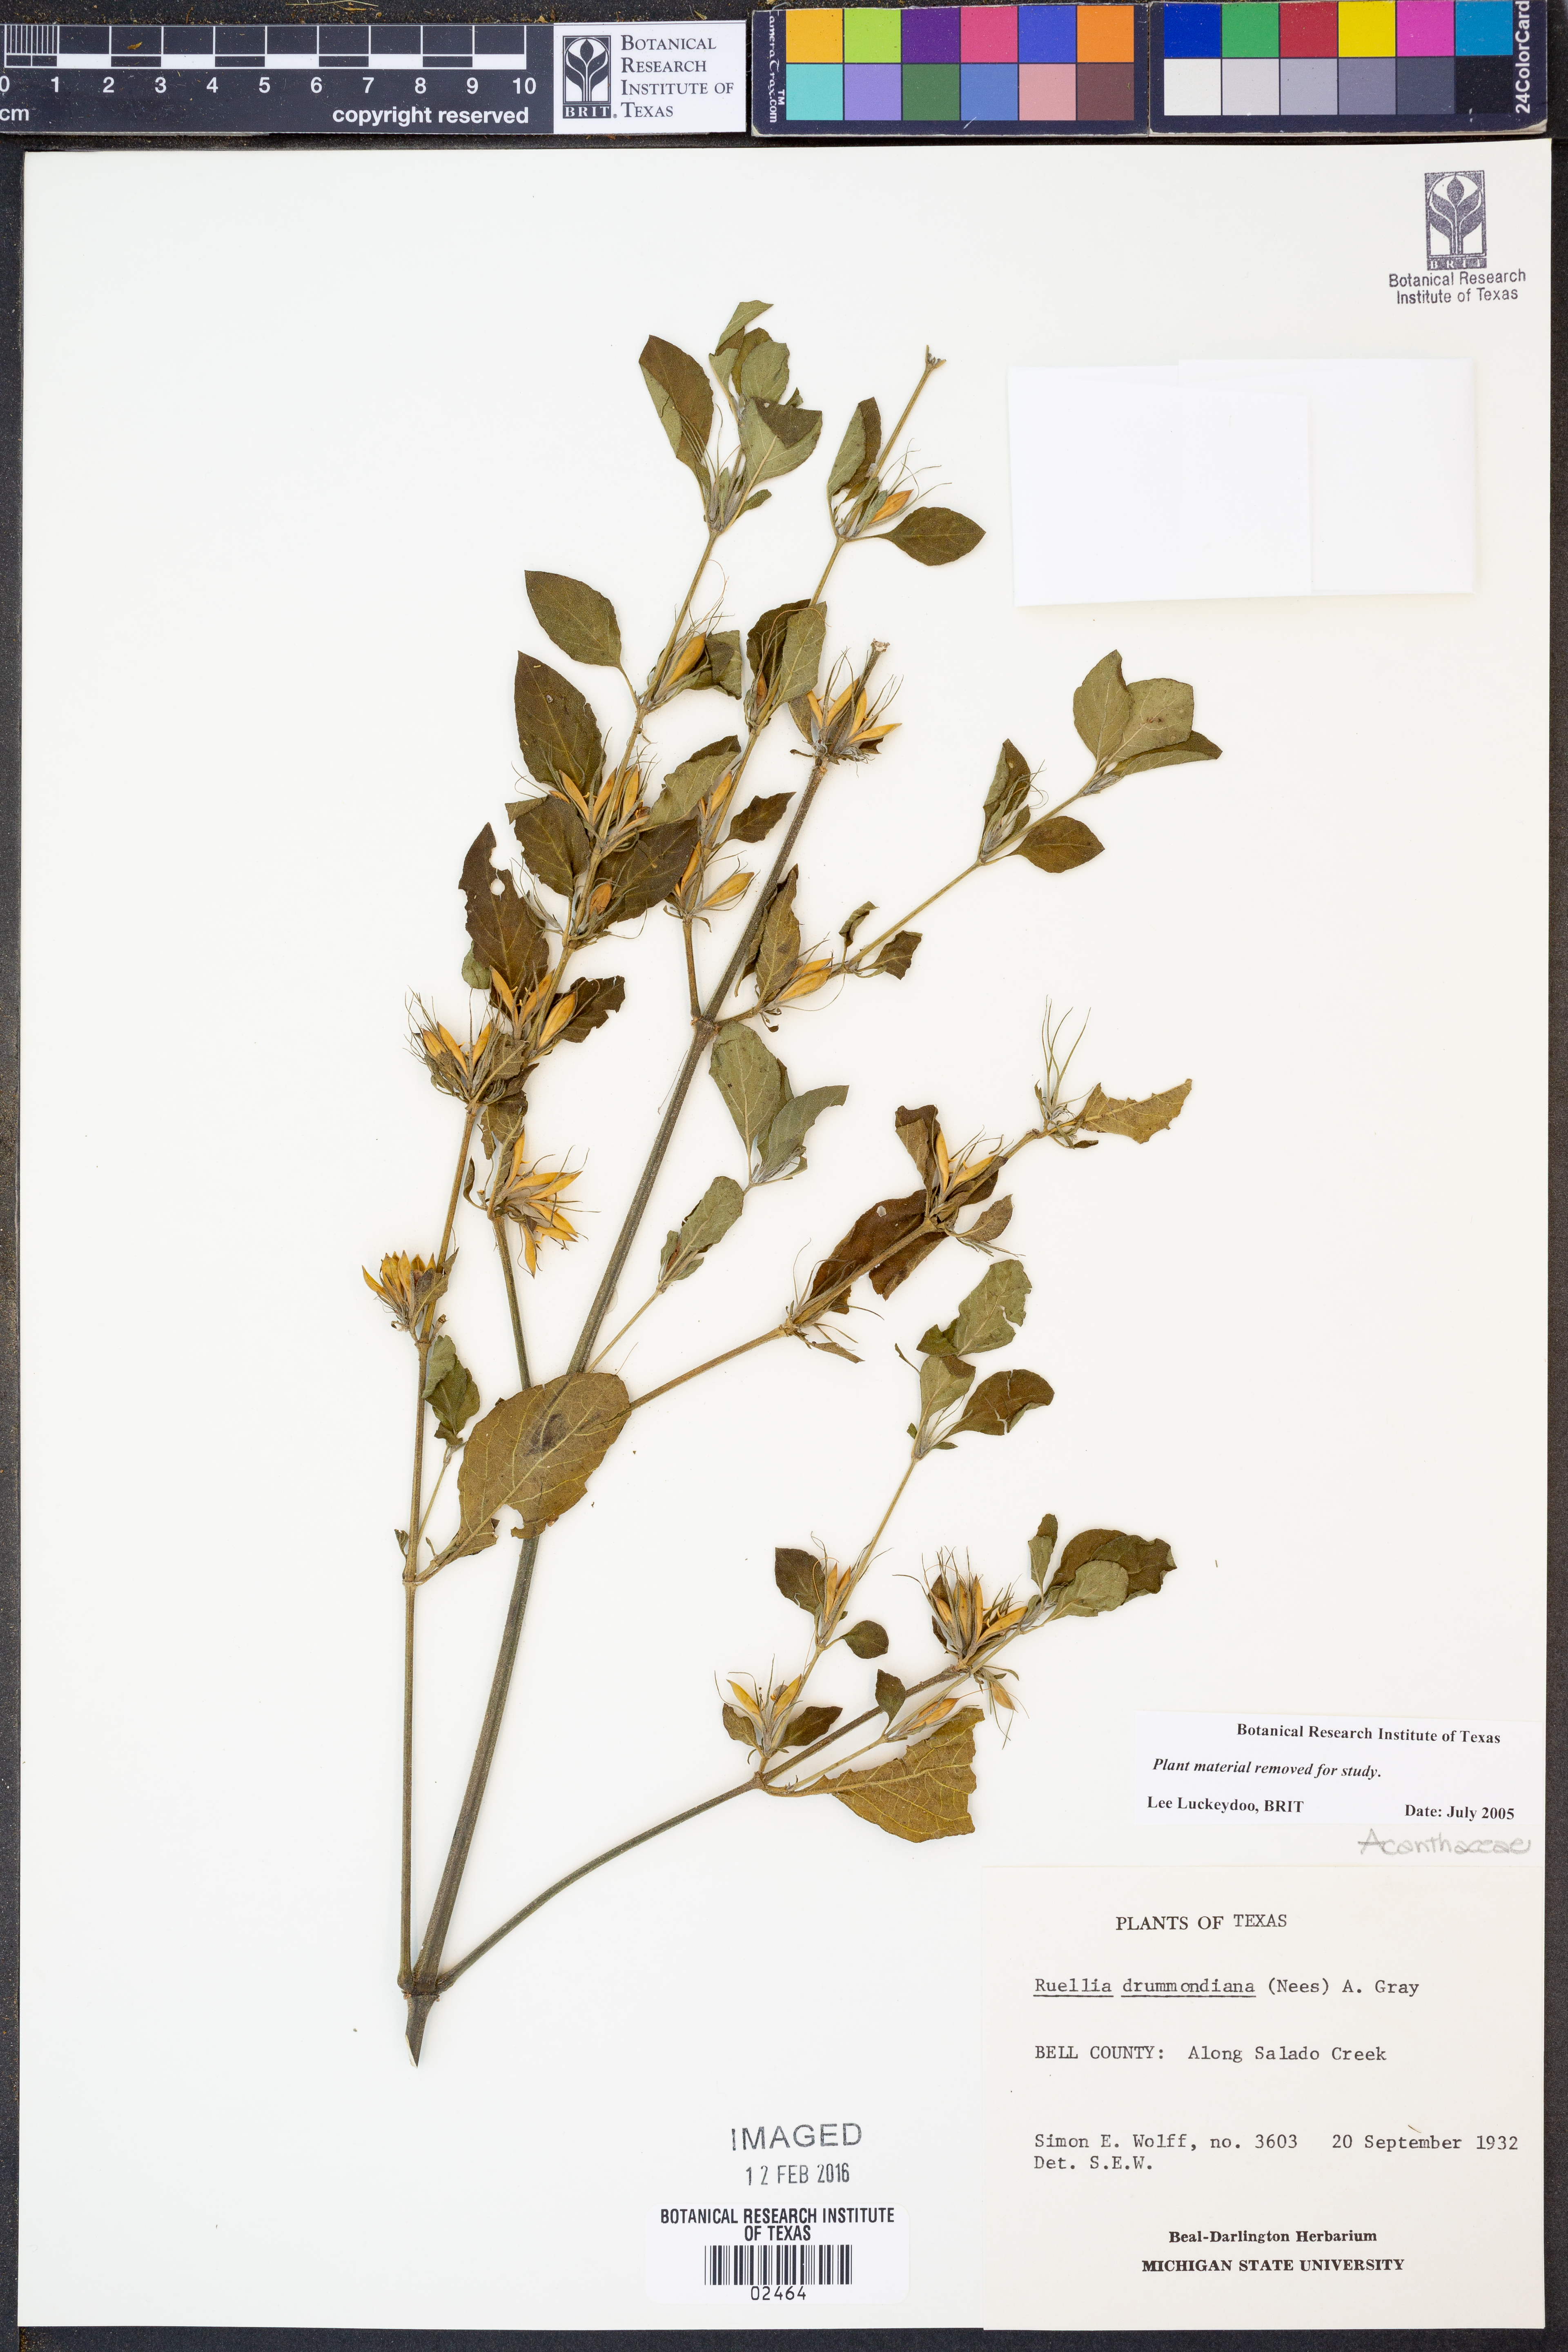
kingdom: Plantae
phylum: Tracheophyta
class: Magnoliopsida
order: Lamiales
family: Acanthaceae
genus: Ruellia
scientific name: Ruellia drummondiana
